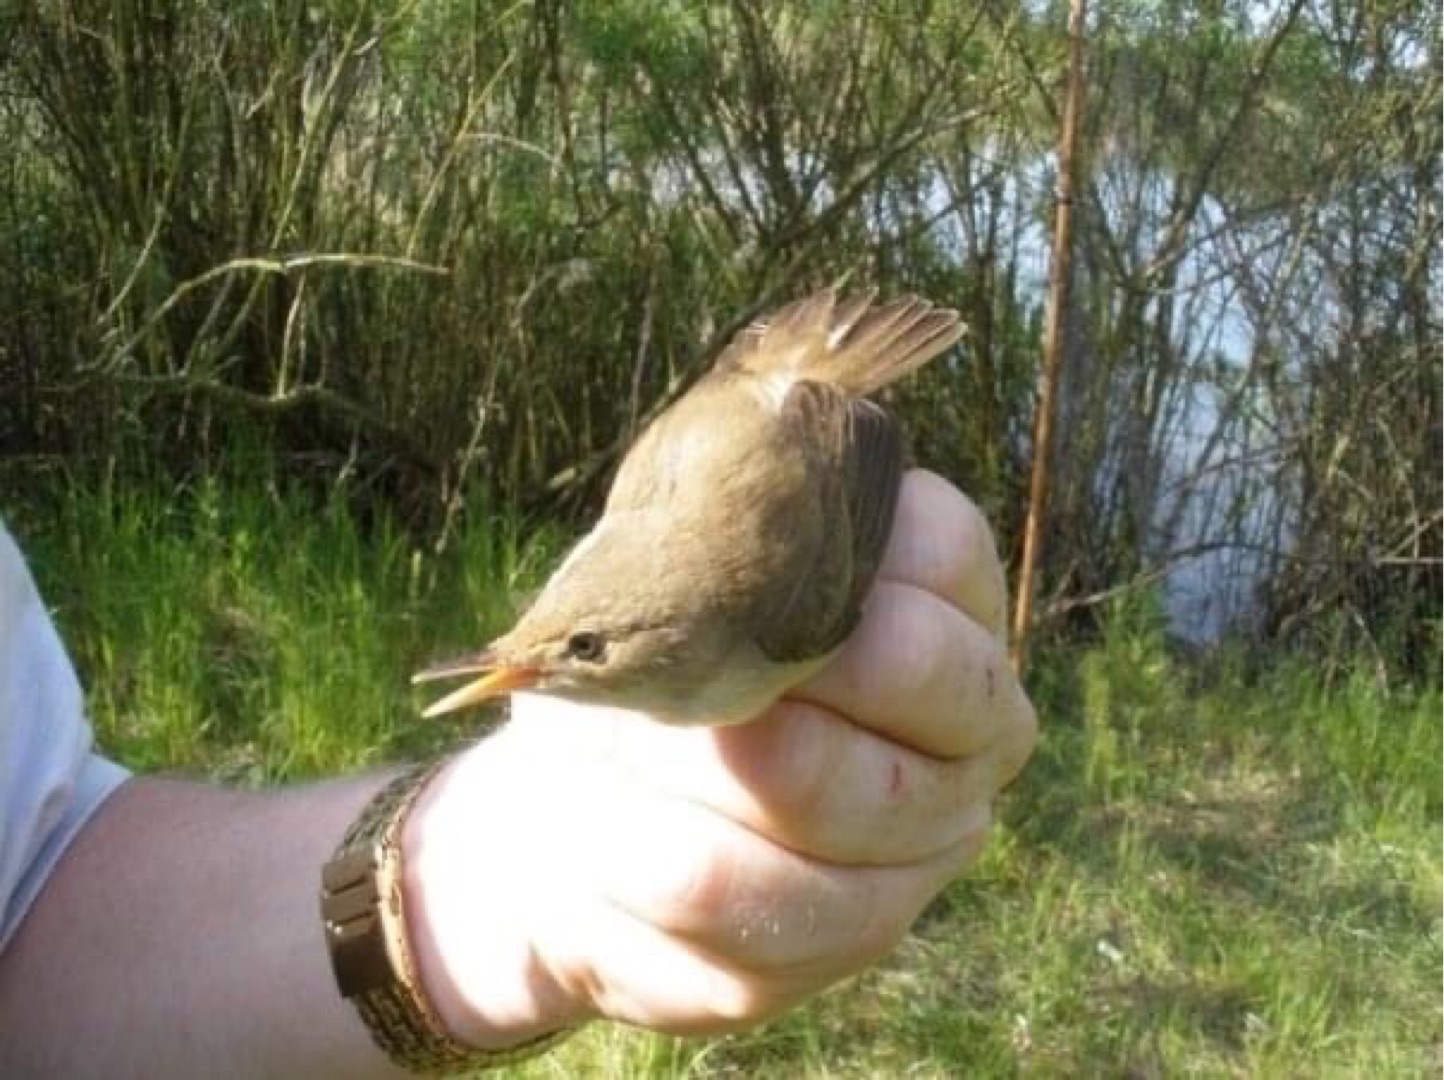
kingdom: Animalia
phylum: Chordata
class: Aves
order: Passeriformes
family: Acrocephalidae
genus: Acrocephalus
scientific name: Acrocephalus scirpaceus
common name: Rørsanger
